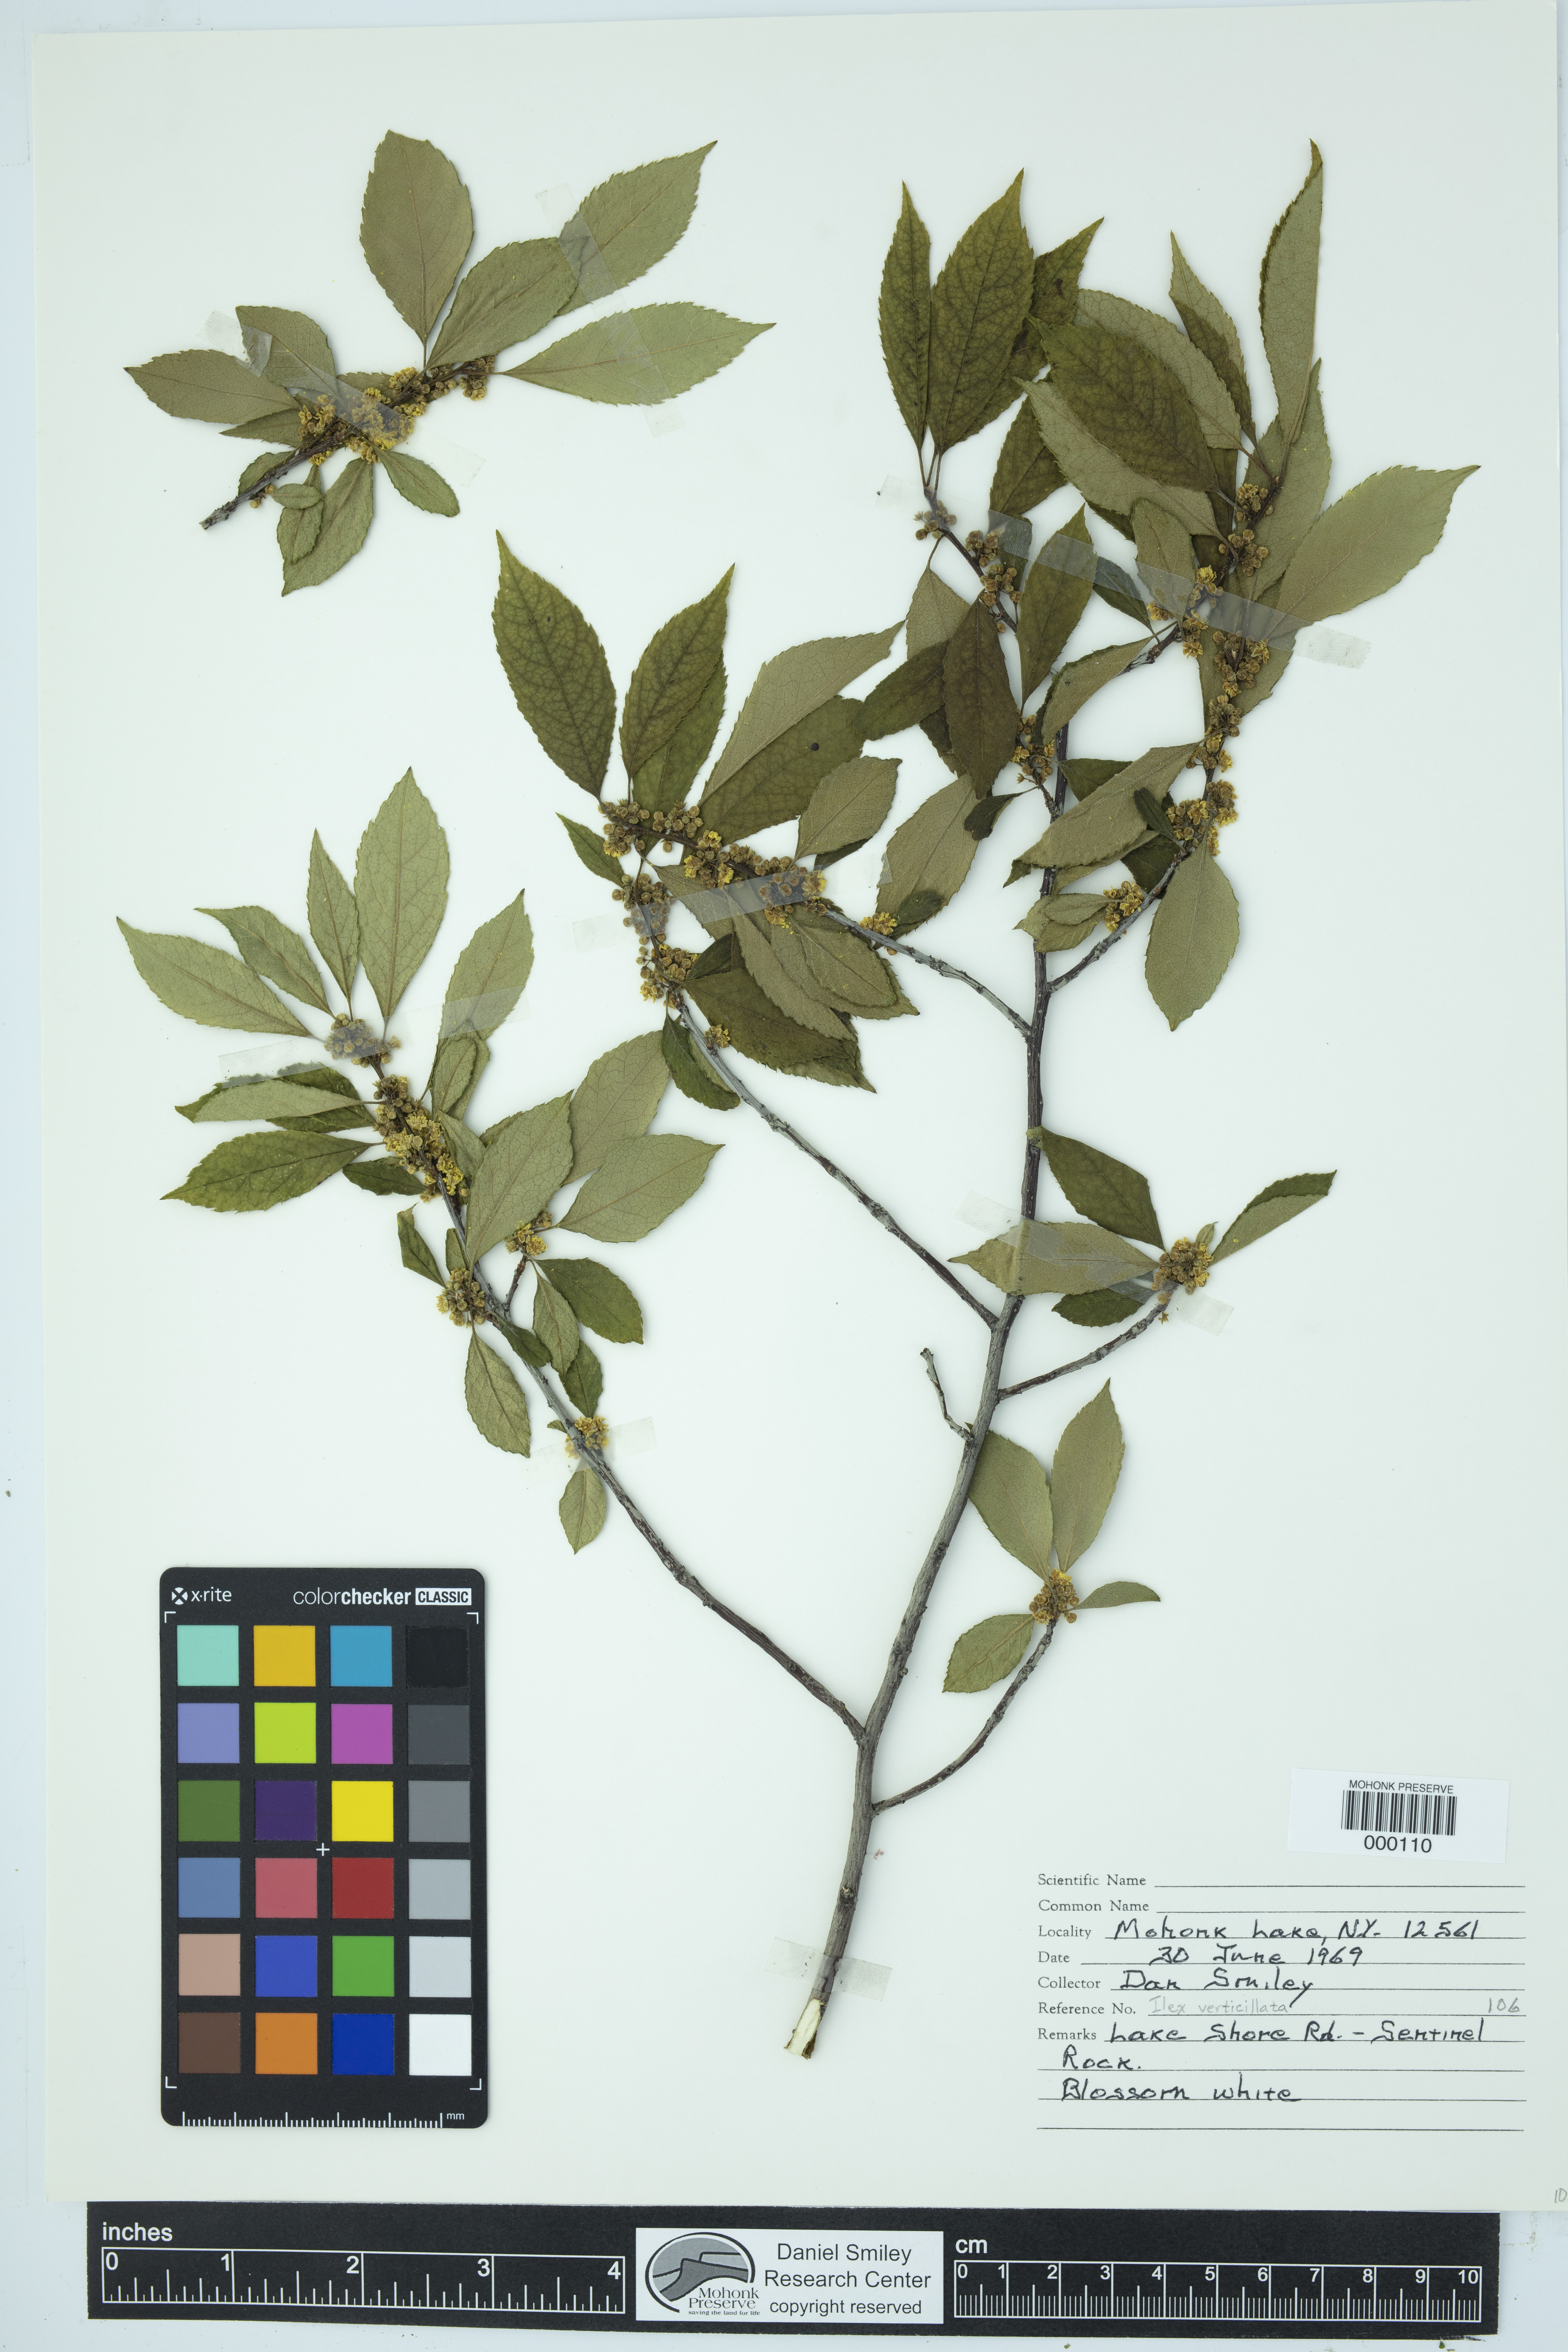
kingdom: Plantae
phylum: Tracheophyta
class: Magnoliopsida
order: Aquifoliales
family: Aquifoliaceae
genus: Ilex
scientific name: Ilex verticillata
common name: Virginia winterberry
